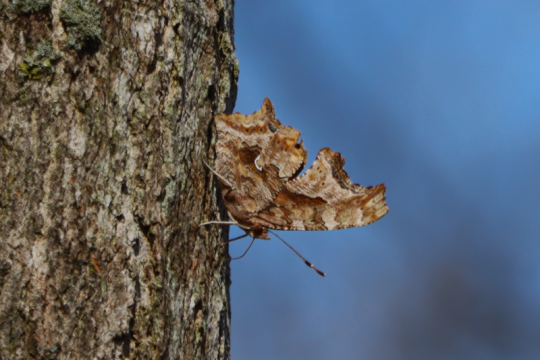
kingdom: Animalia
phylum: Arthropoda
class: Insecta
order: Lepidoptera
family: Nymphalidae
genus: Polygonia
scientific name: Polygonia comma
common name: Eastern Comma
